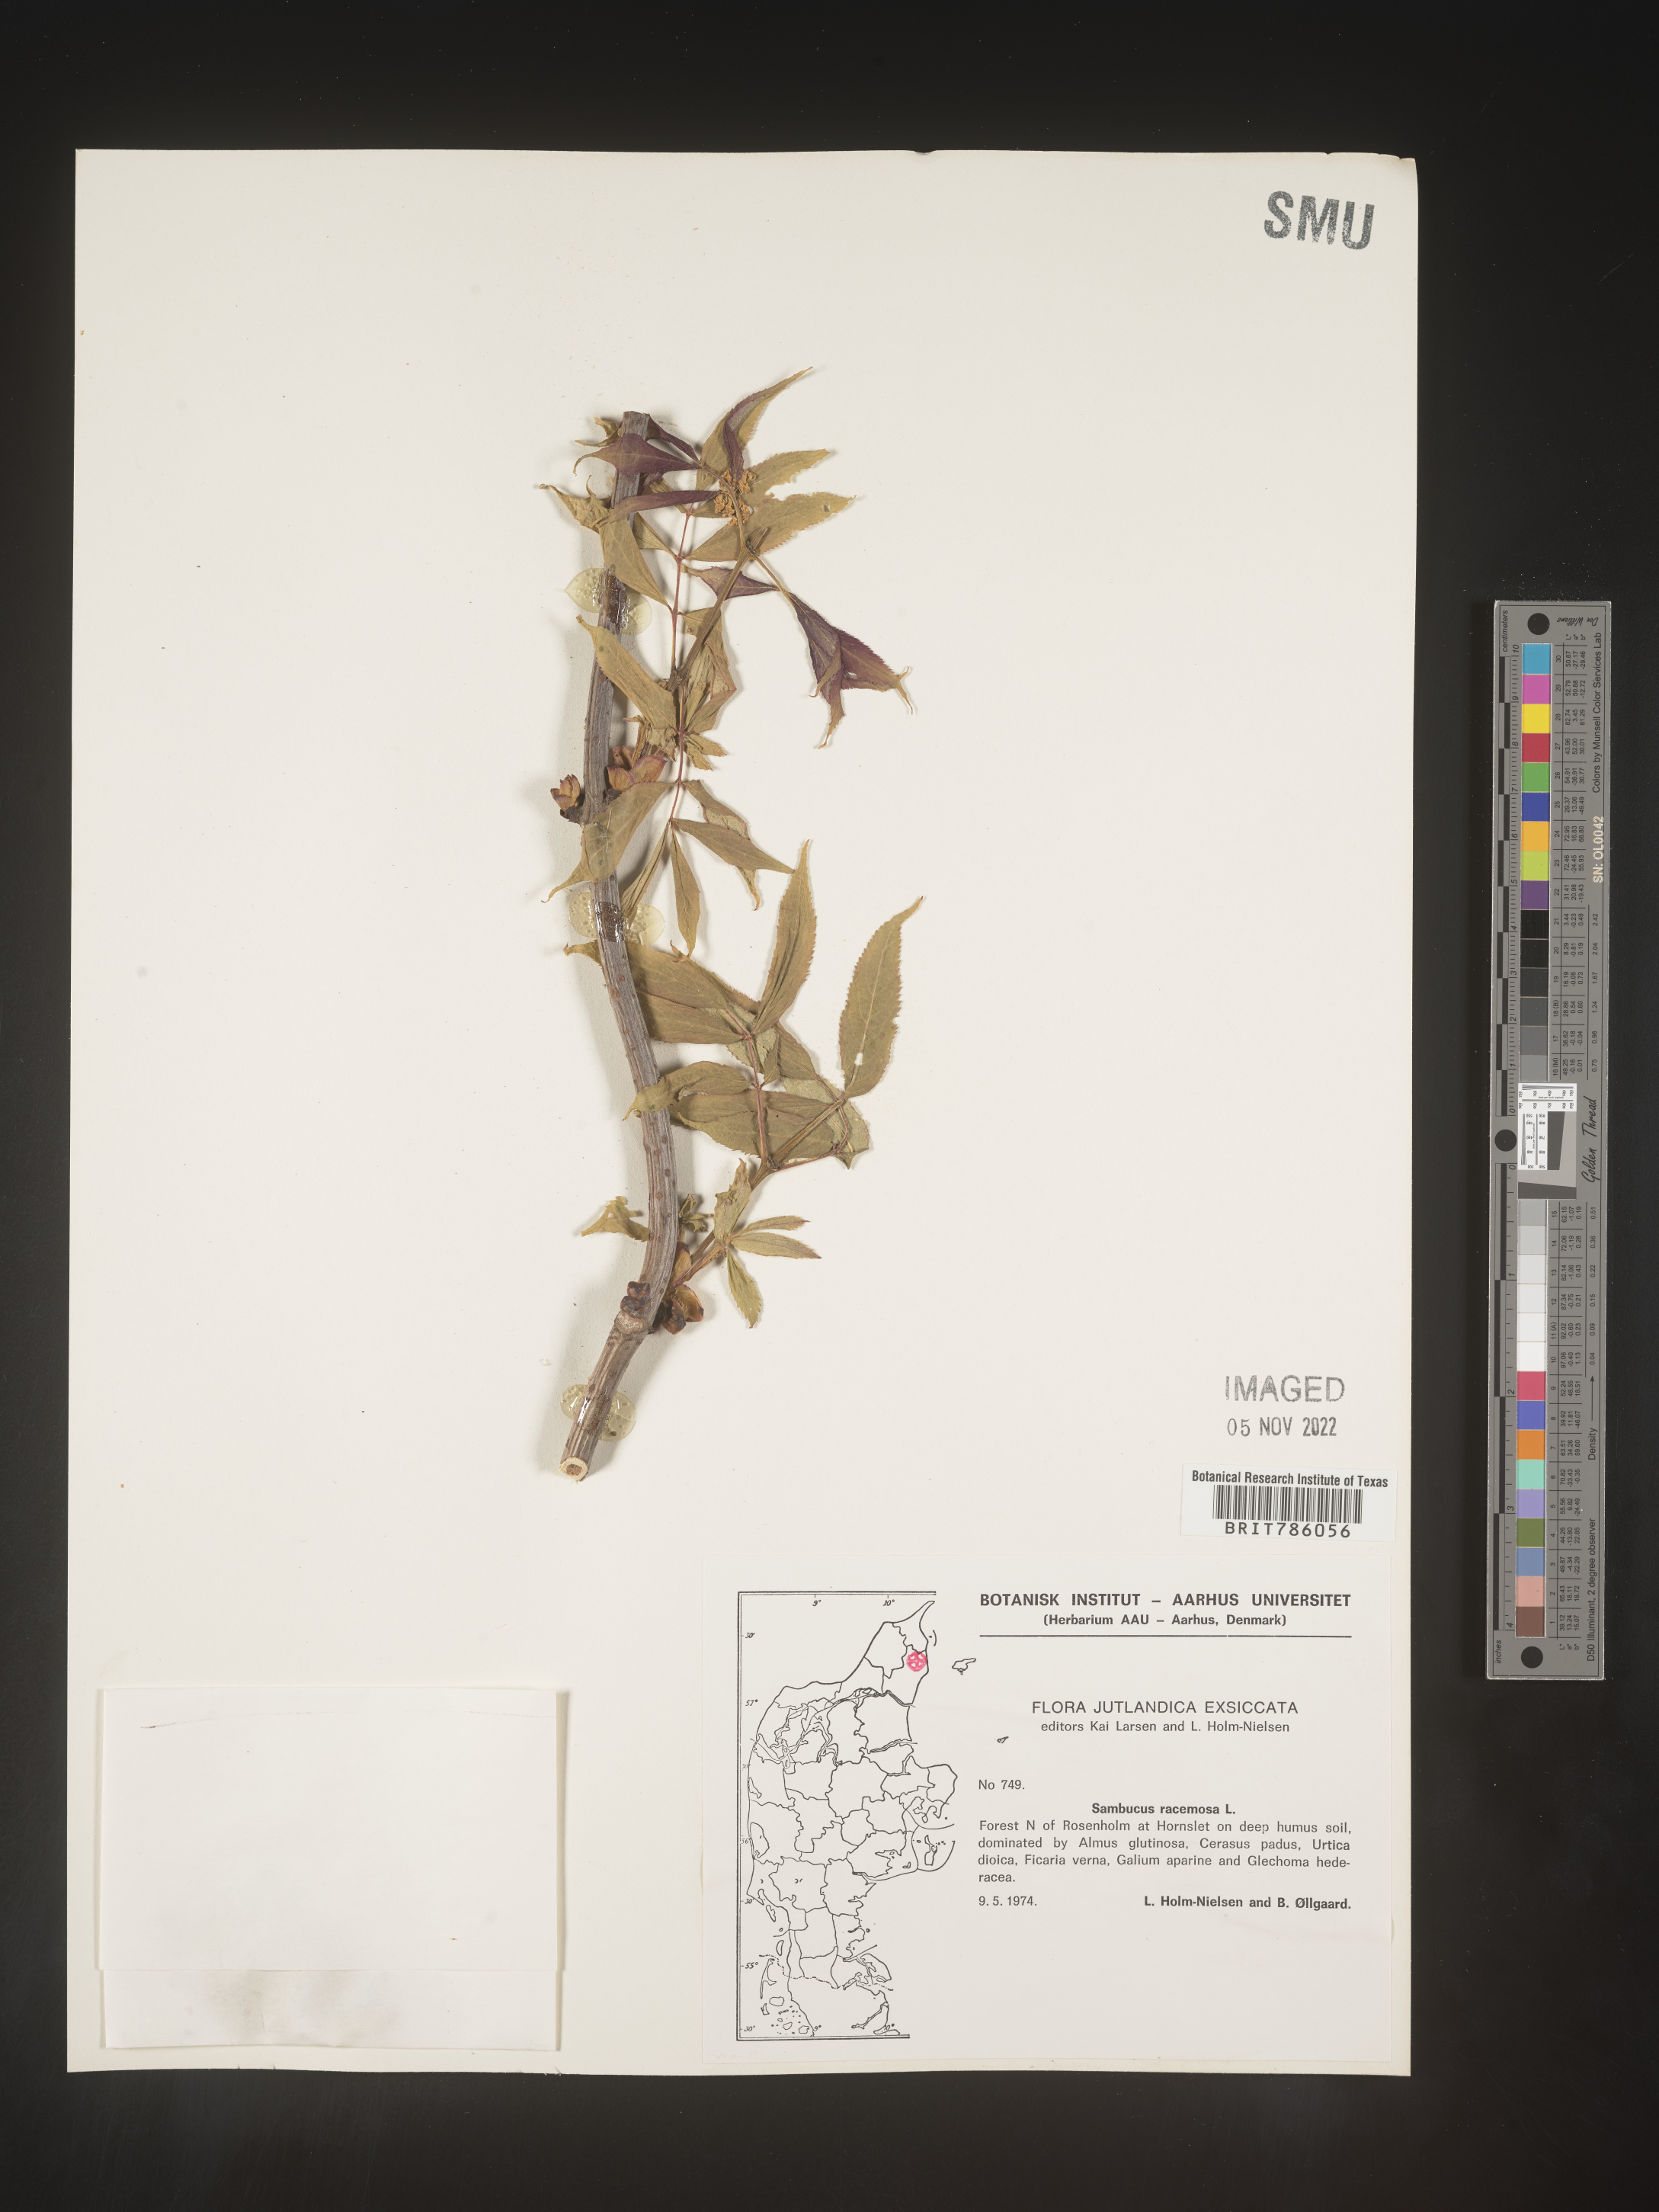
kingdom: Plantae
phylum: Tracheophyta
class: Magnoliopsida
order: Dipsacales
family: Viburnaceae
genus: Sambucus
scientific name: Sambucus
